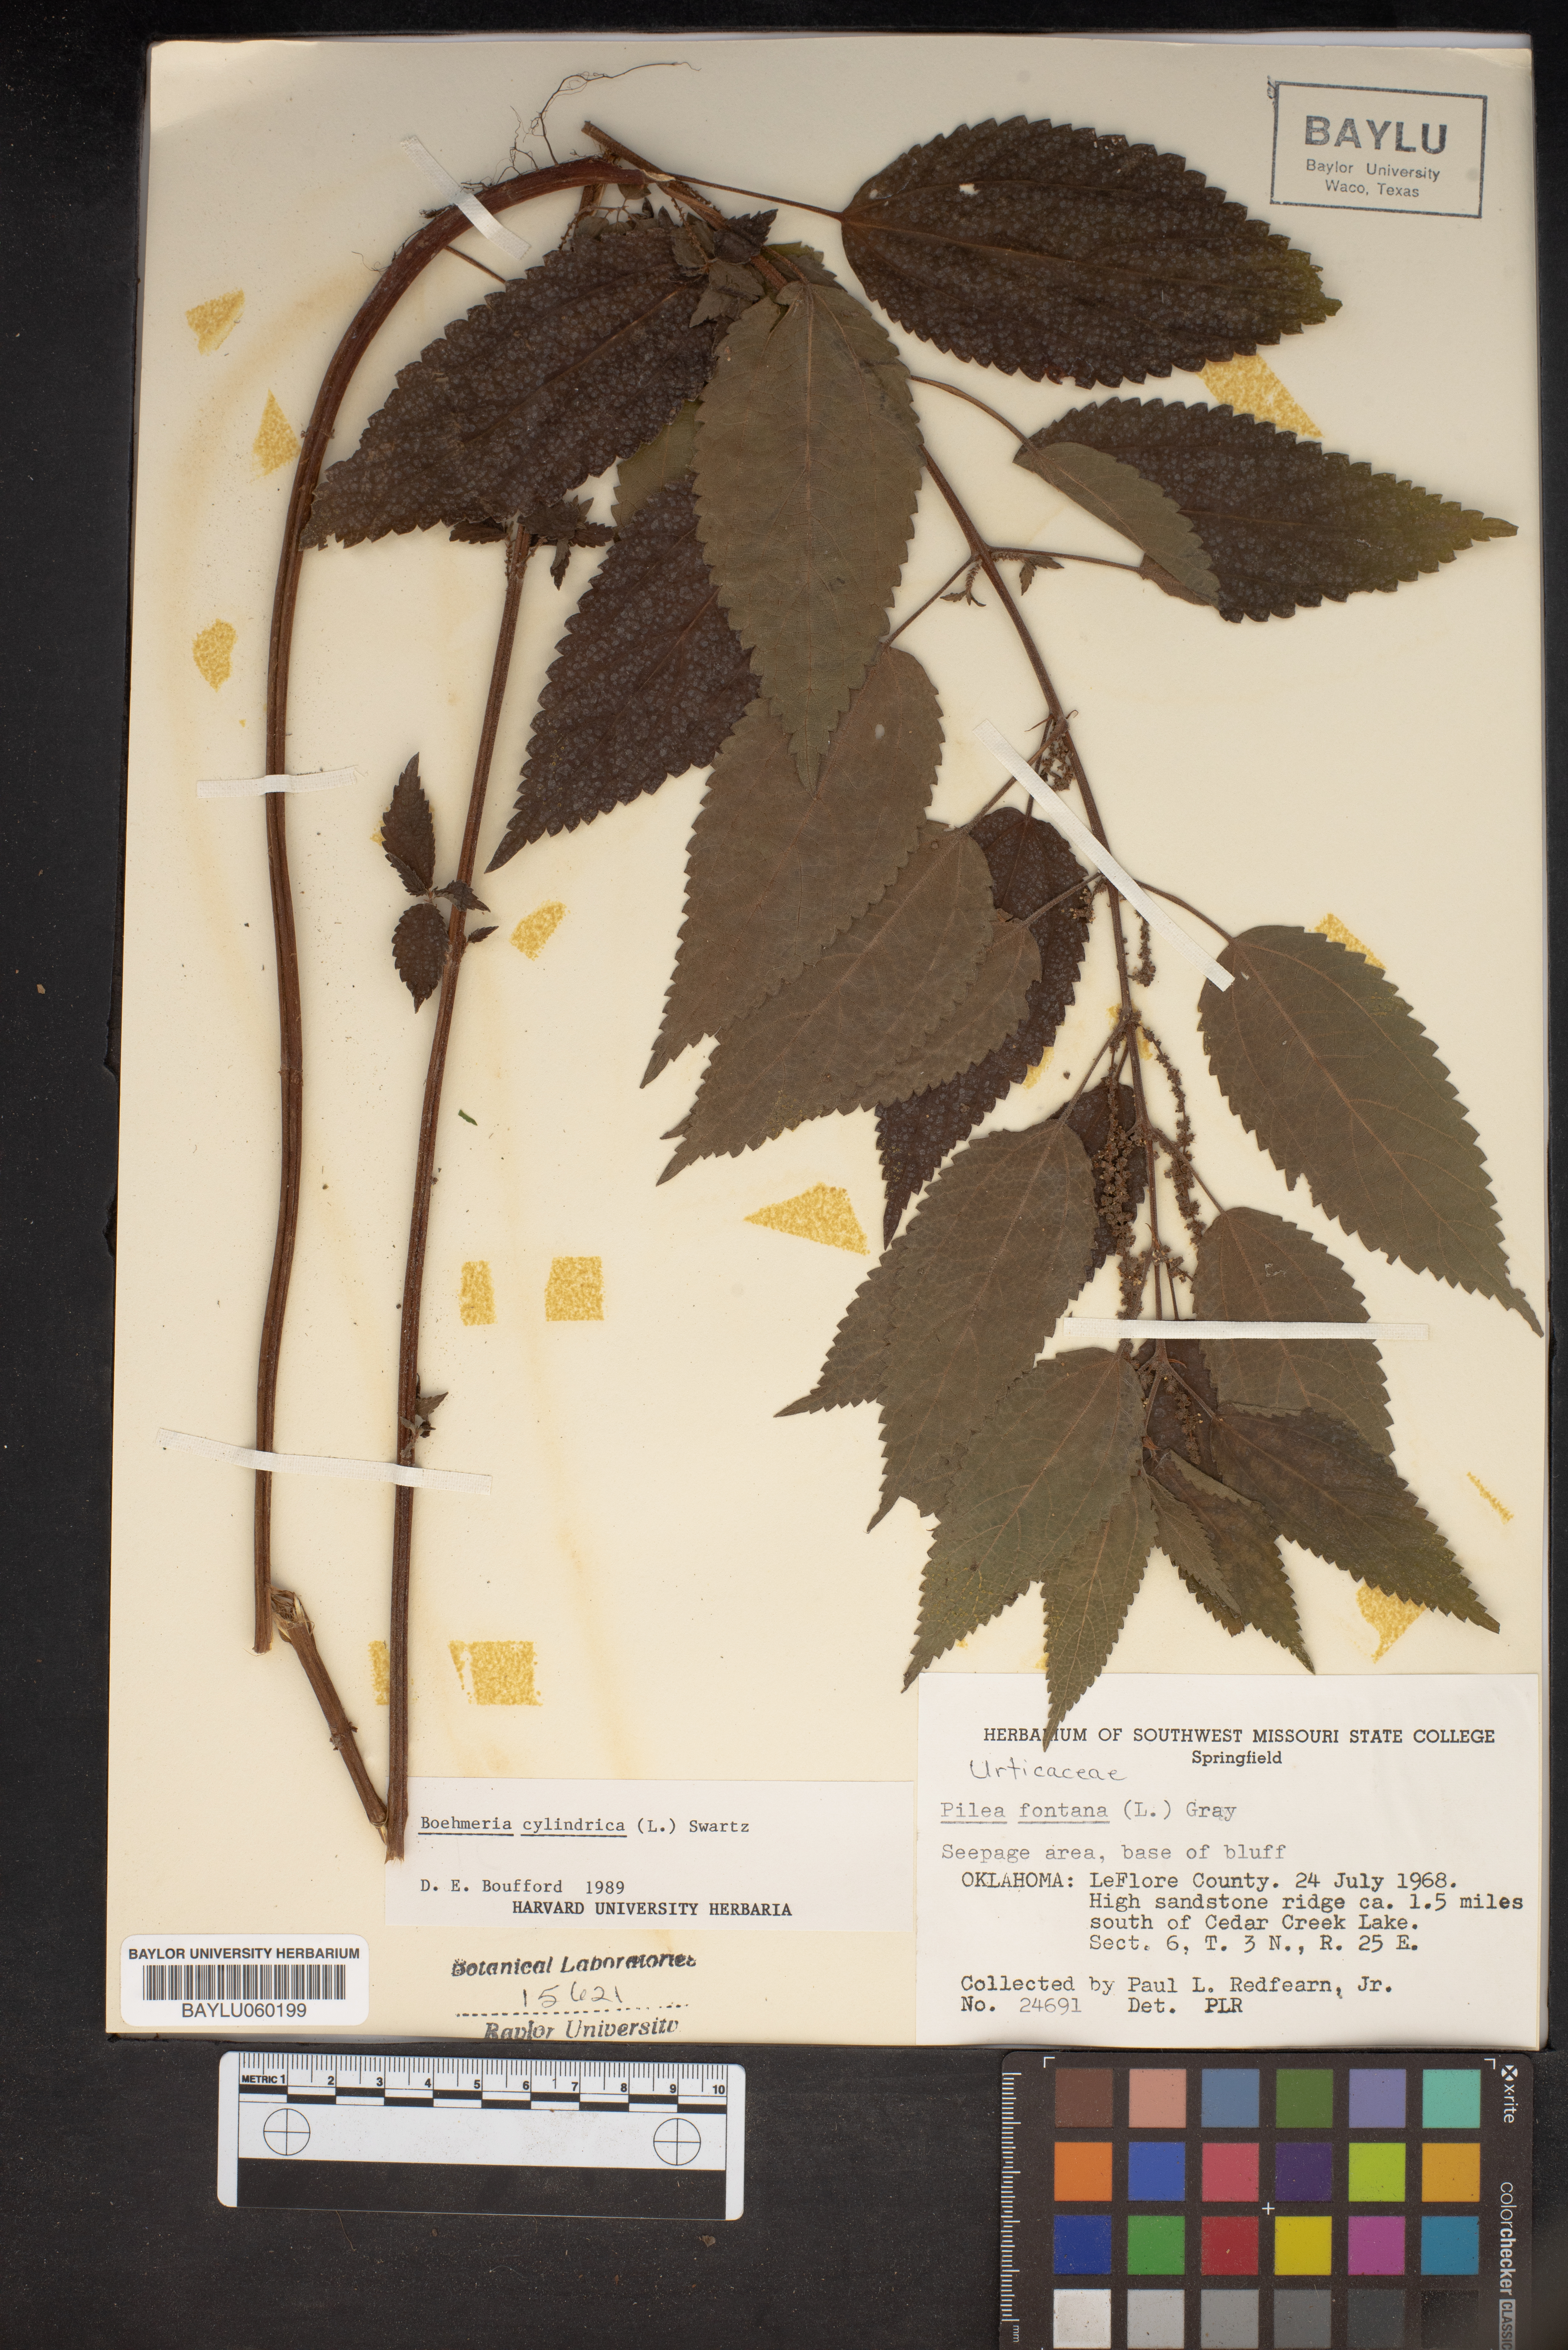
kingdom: Plantae
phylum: Tracheophyta
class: Magnoliopsida
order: Rosales
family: Urticaceae
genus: Boehmeria
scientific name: Boehmeria cylindrica
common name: Bog-hemp
